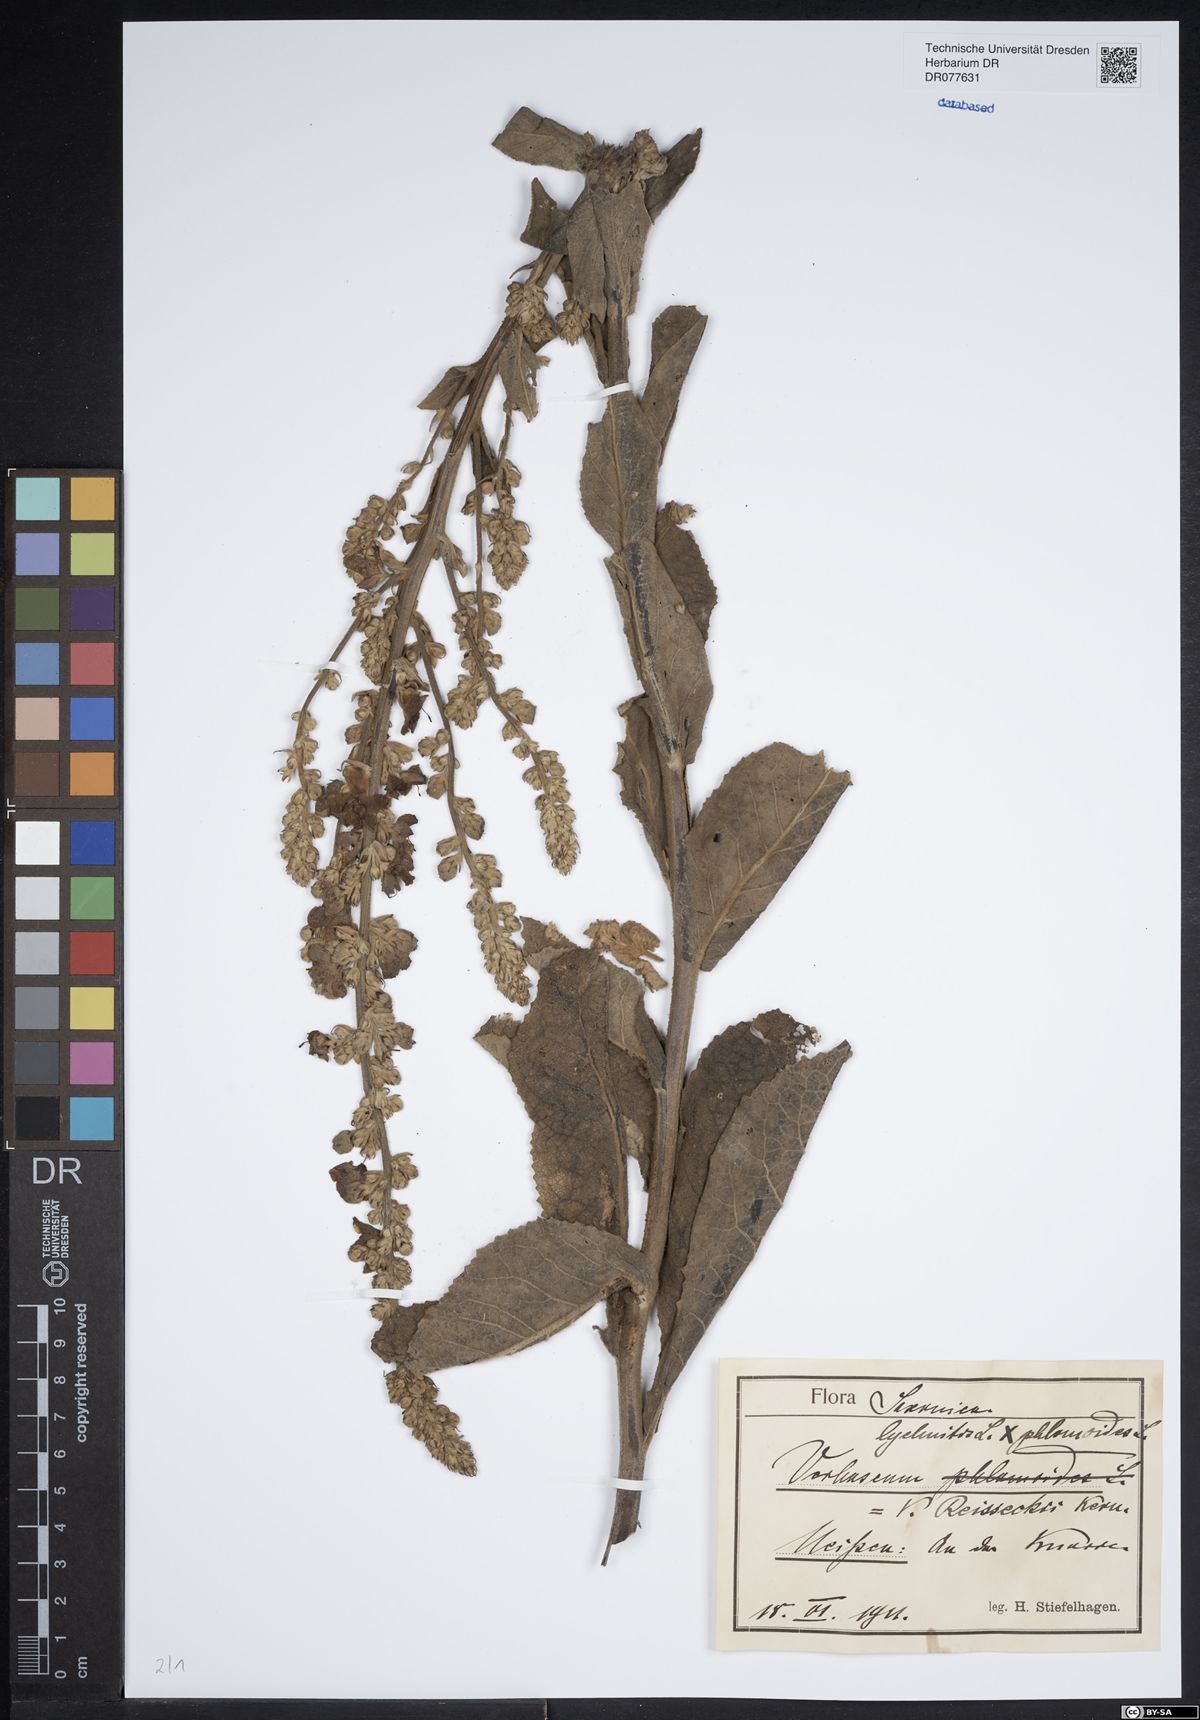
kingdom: Plantae
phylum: Tracheophyta
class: Magnoliopsida
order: Lamiales
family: Scrophulariaceae
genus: Verbascum
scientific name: Verbascum denudatum
